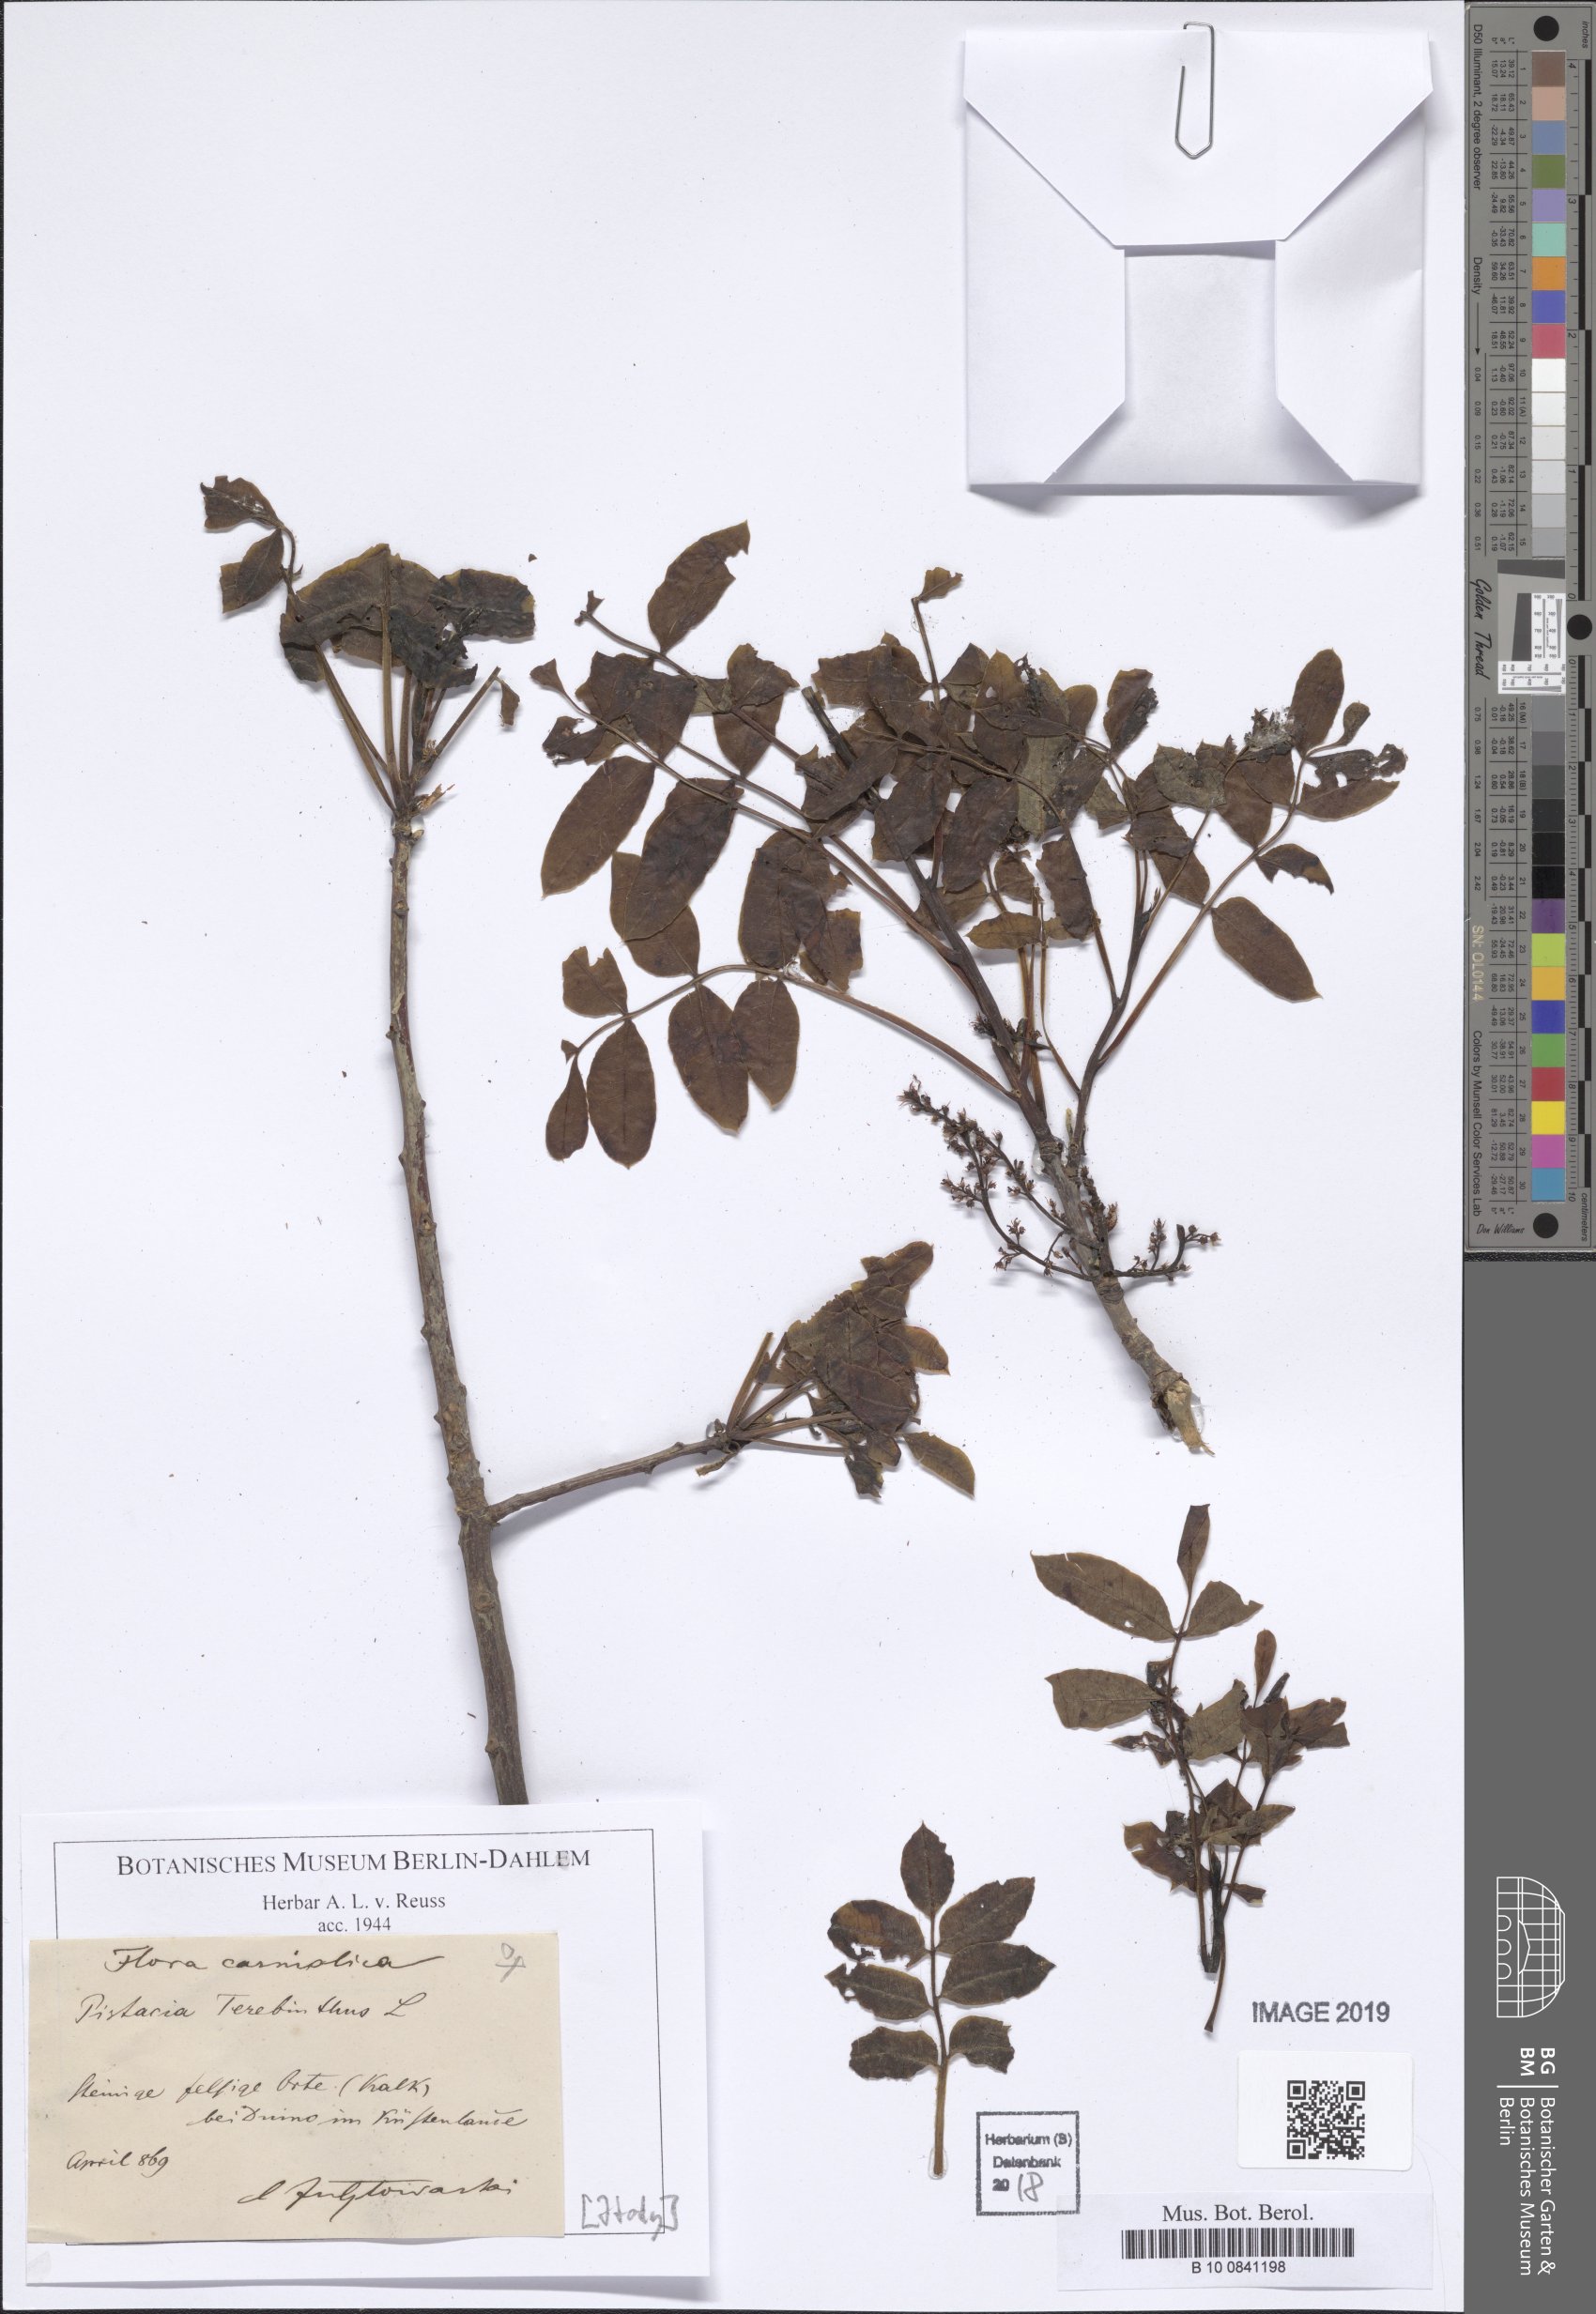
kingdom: Plantae
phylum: Tracheophyta
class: Magnoliopsida
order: Sapindales
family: Anacardiaceae
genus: Pistacia
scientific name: Pistacia terebinthus
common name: Terebinth
